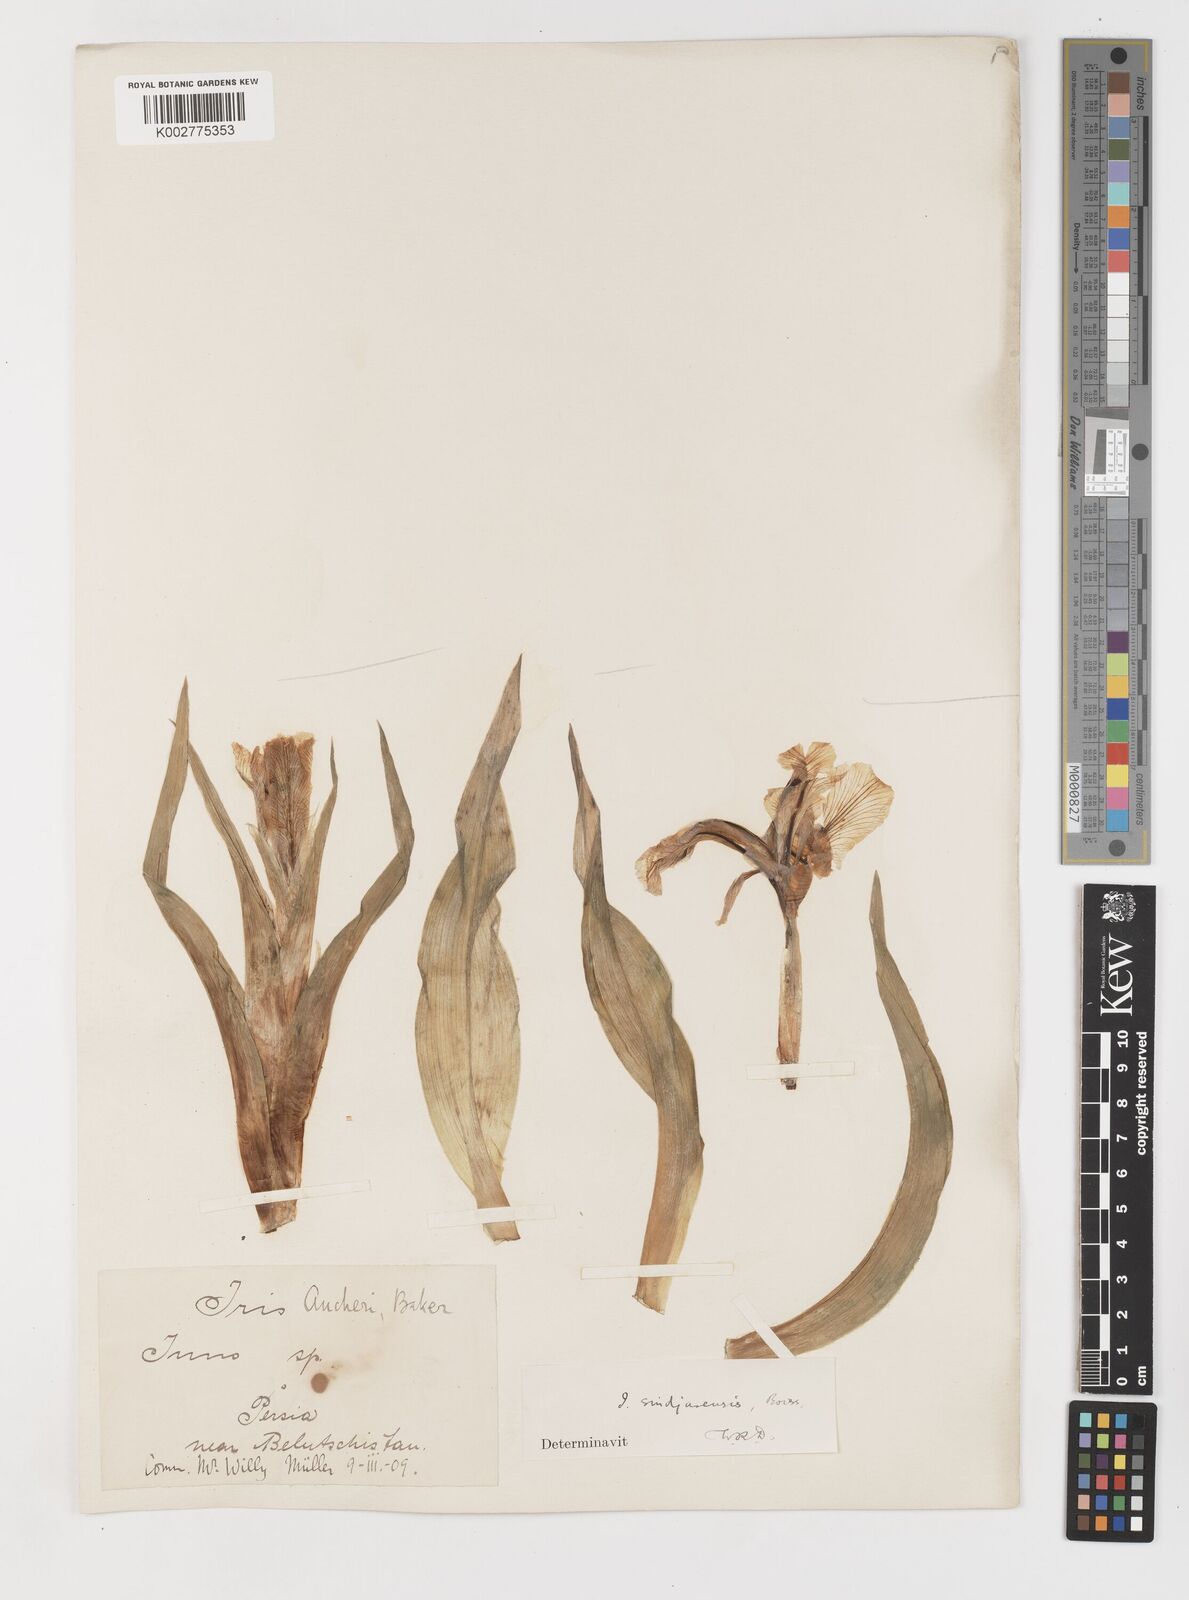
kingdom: Plantae
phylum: Tracheophyta
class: Liliopsida
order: Asparagales
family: Iridaceae
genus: Iris
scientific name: Iris aucheri
